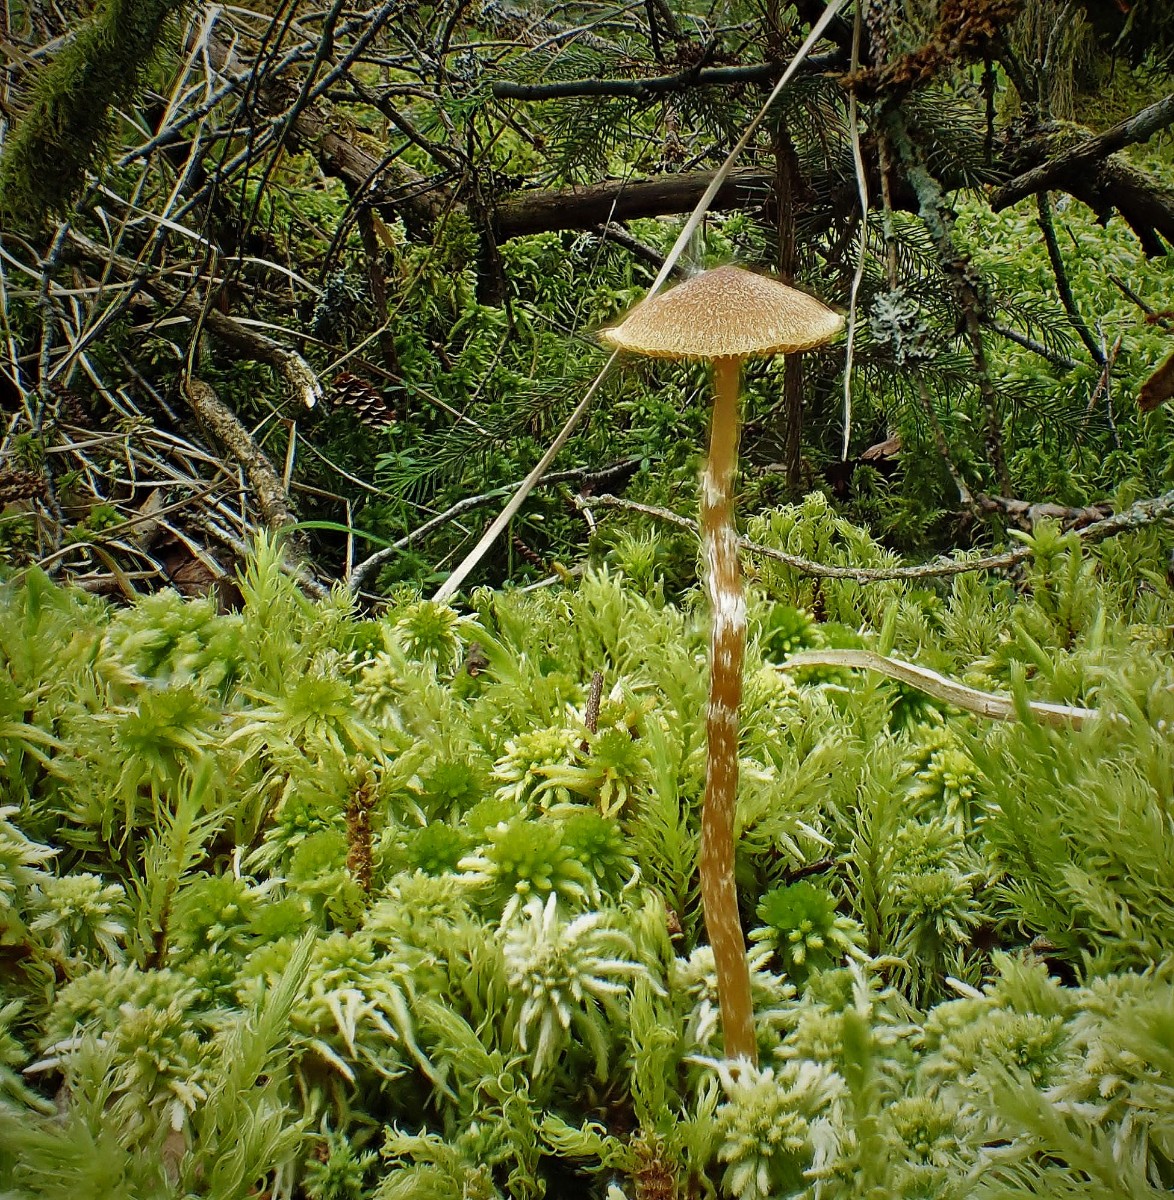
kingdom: Fungi
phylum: Basidiomycota
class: Agaricomycetes
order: Agaricales
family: Hymenogastraceae
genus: Galerina
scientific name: Galerina paludosa
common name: mose-hjelmhat
